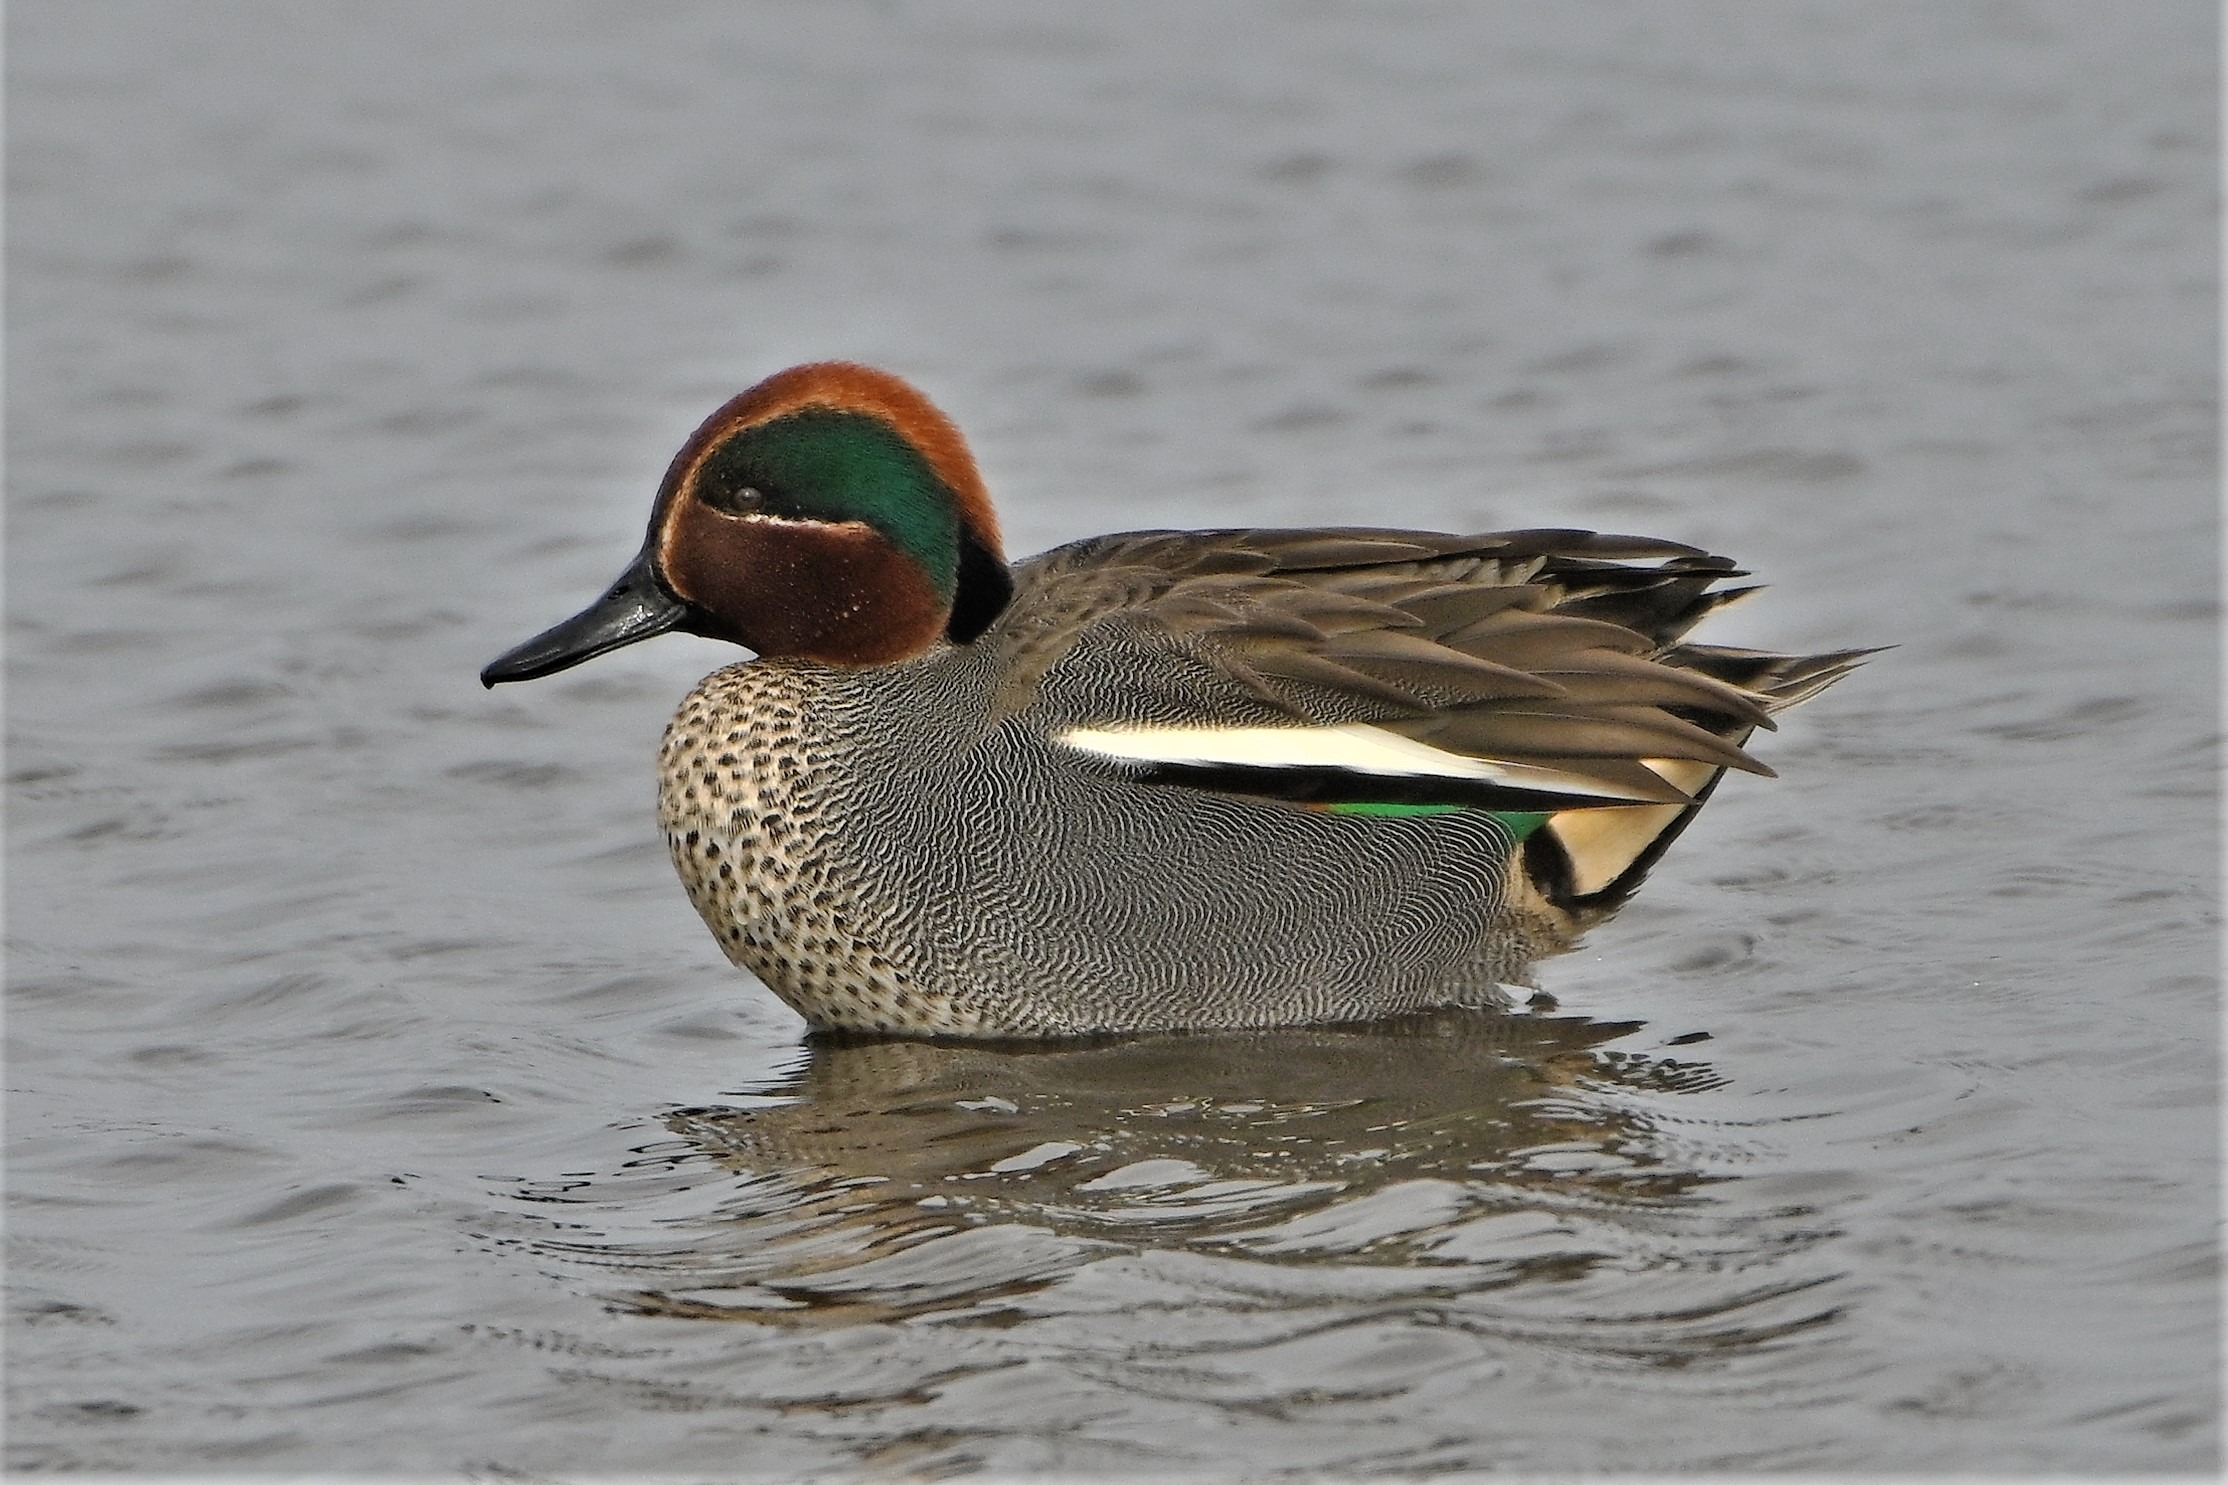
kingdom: Animalia
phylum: Chordata
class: Aves
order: Anseriformes
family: Anatidae
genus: Anas
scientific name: Anas crecca
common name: Krikand
